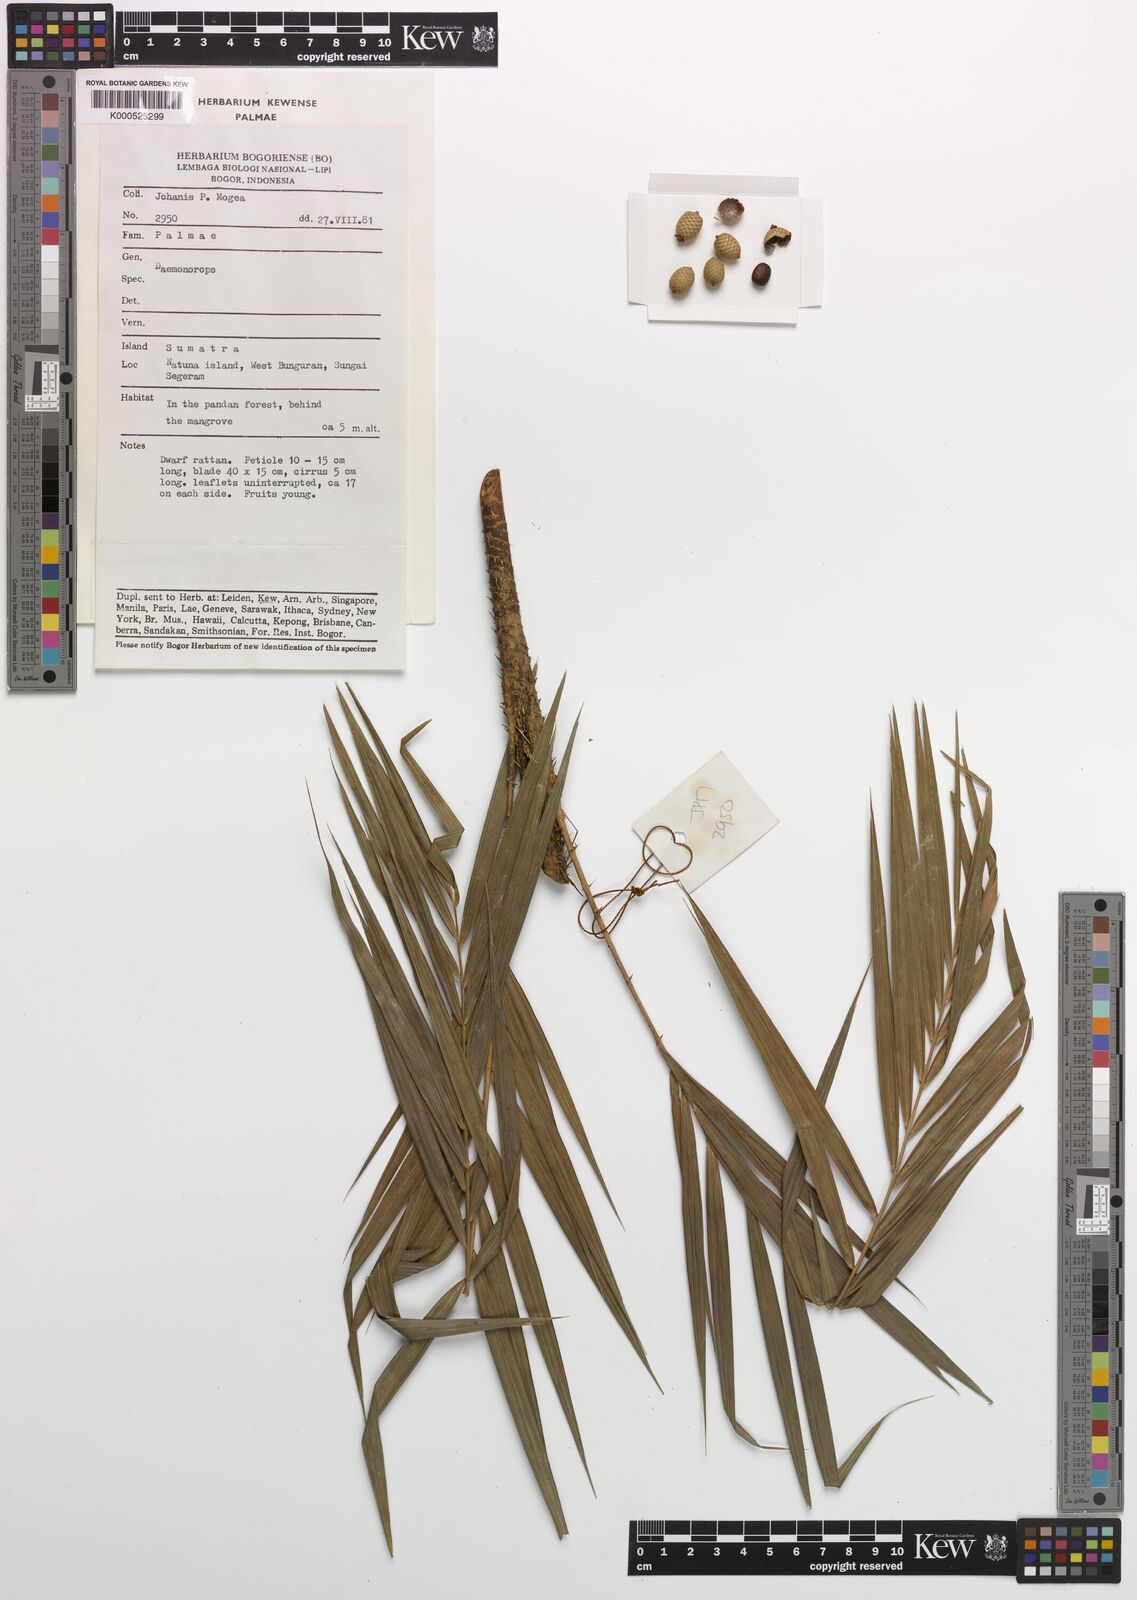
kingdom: Plantae
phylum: Tracheophyta
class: Liliopsida
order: Arecales
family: Arecaceae
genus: Calamus
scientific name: Calamus hirsutus
